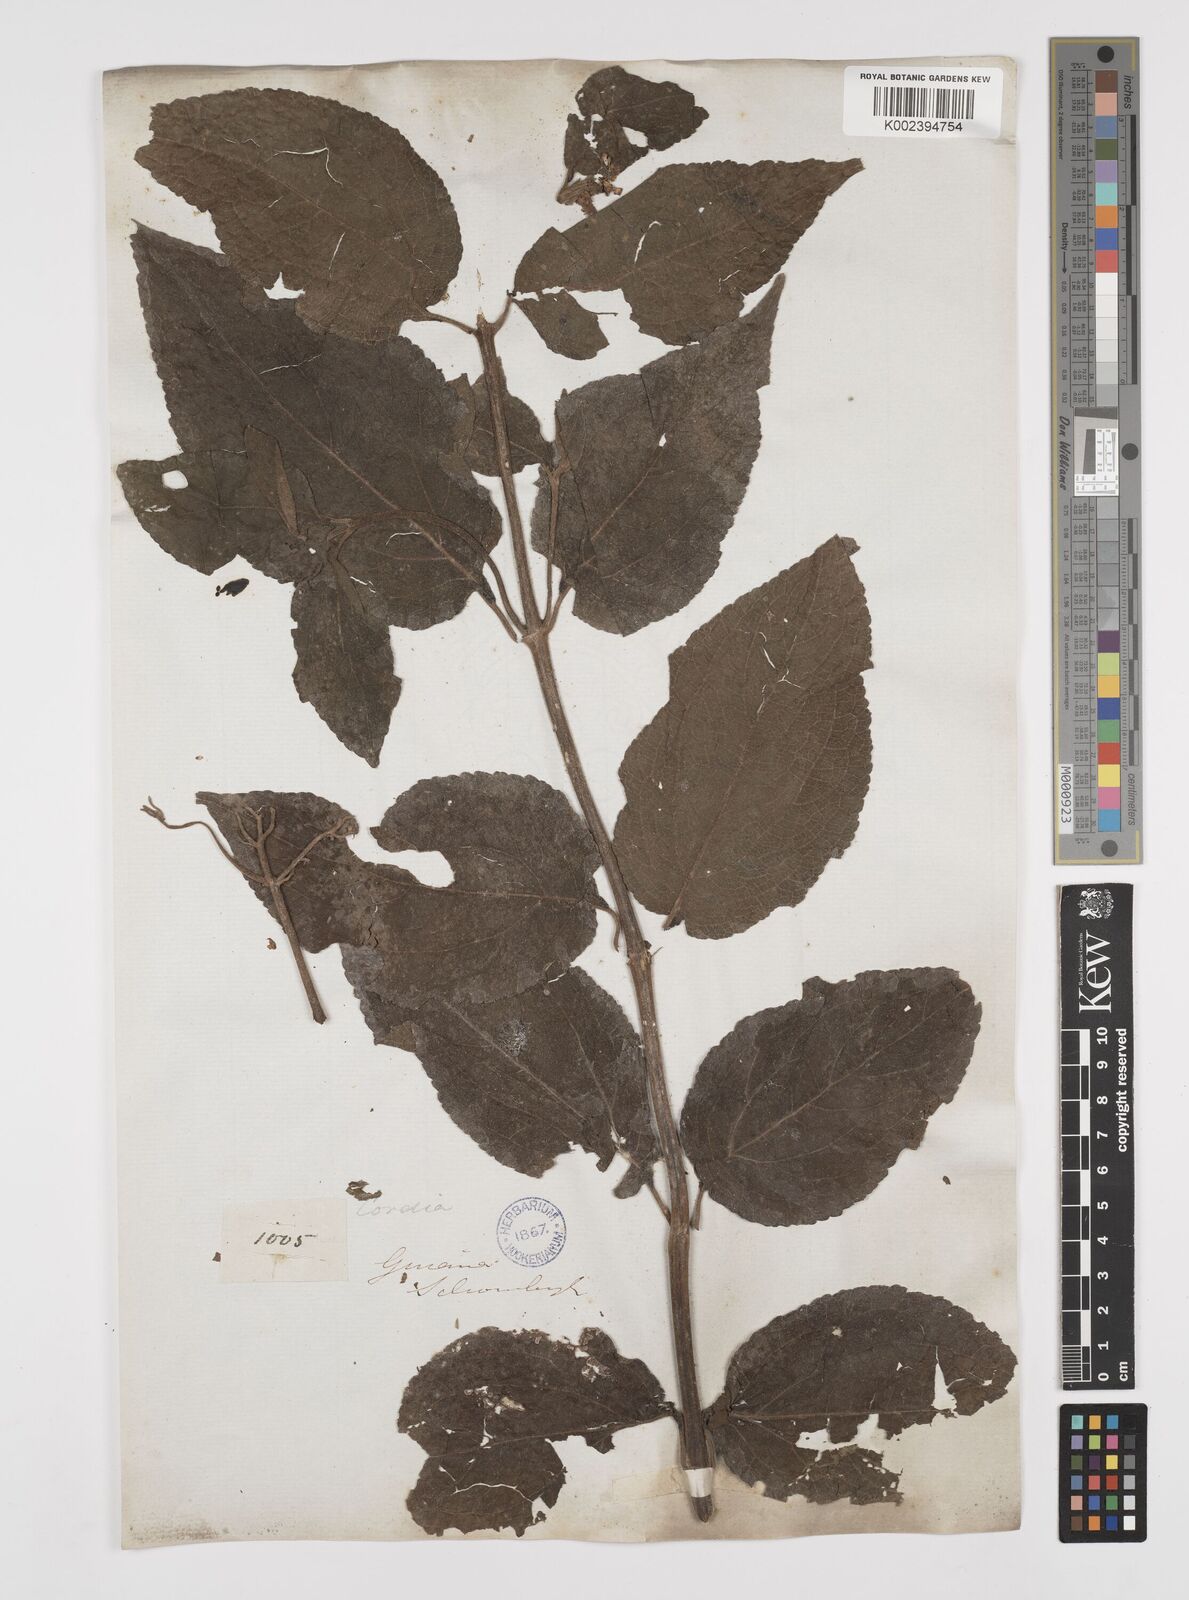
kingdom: Plantae
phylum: Tracheophyta
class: Magnoliopsida
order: Asterales
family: Asteraceae
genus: Clibadium
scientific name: Clibadium surinamense
